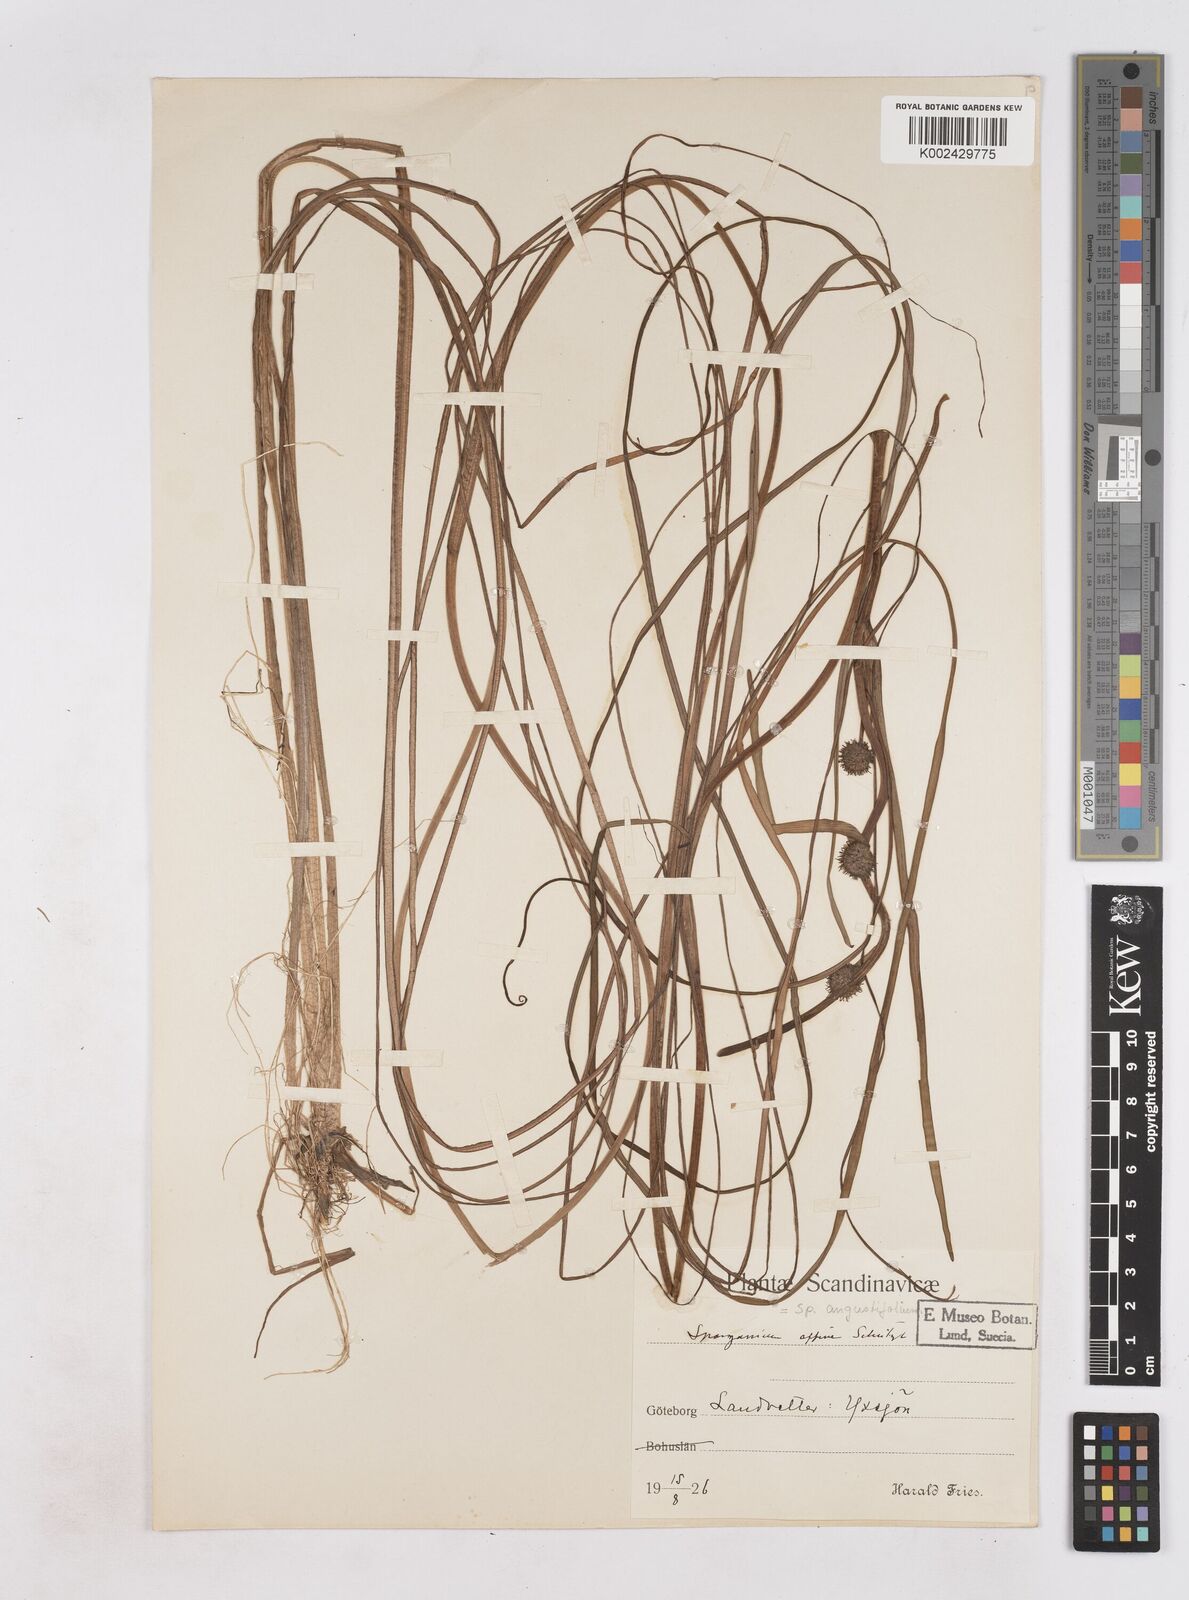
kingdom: Plantae
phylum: Tracheophyta
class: Liliopsida
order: Poales
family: Typhaceae
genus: Sparganium
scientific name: Sparganium angustifolium
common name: Floating bur-reed
